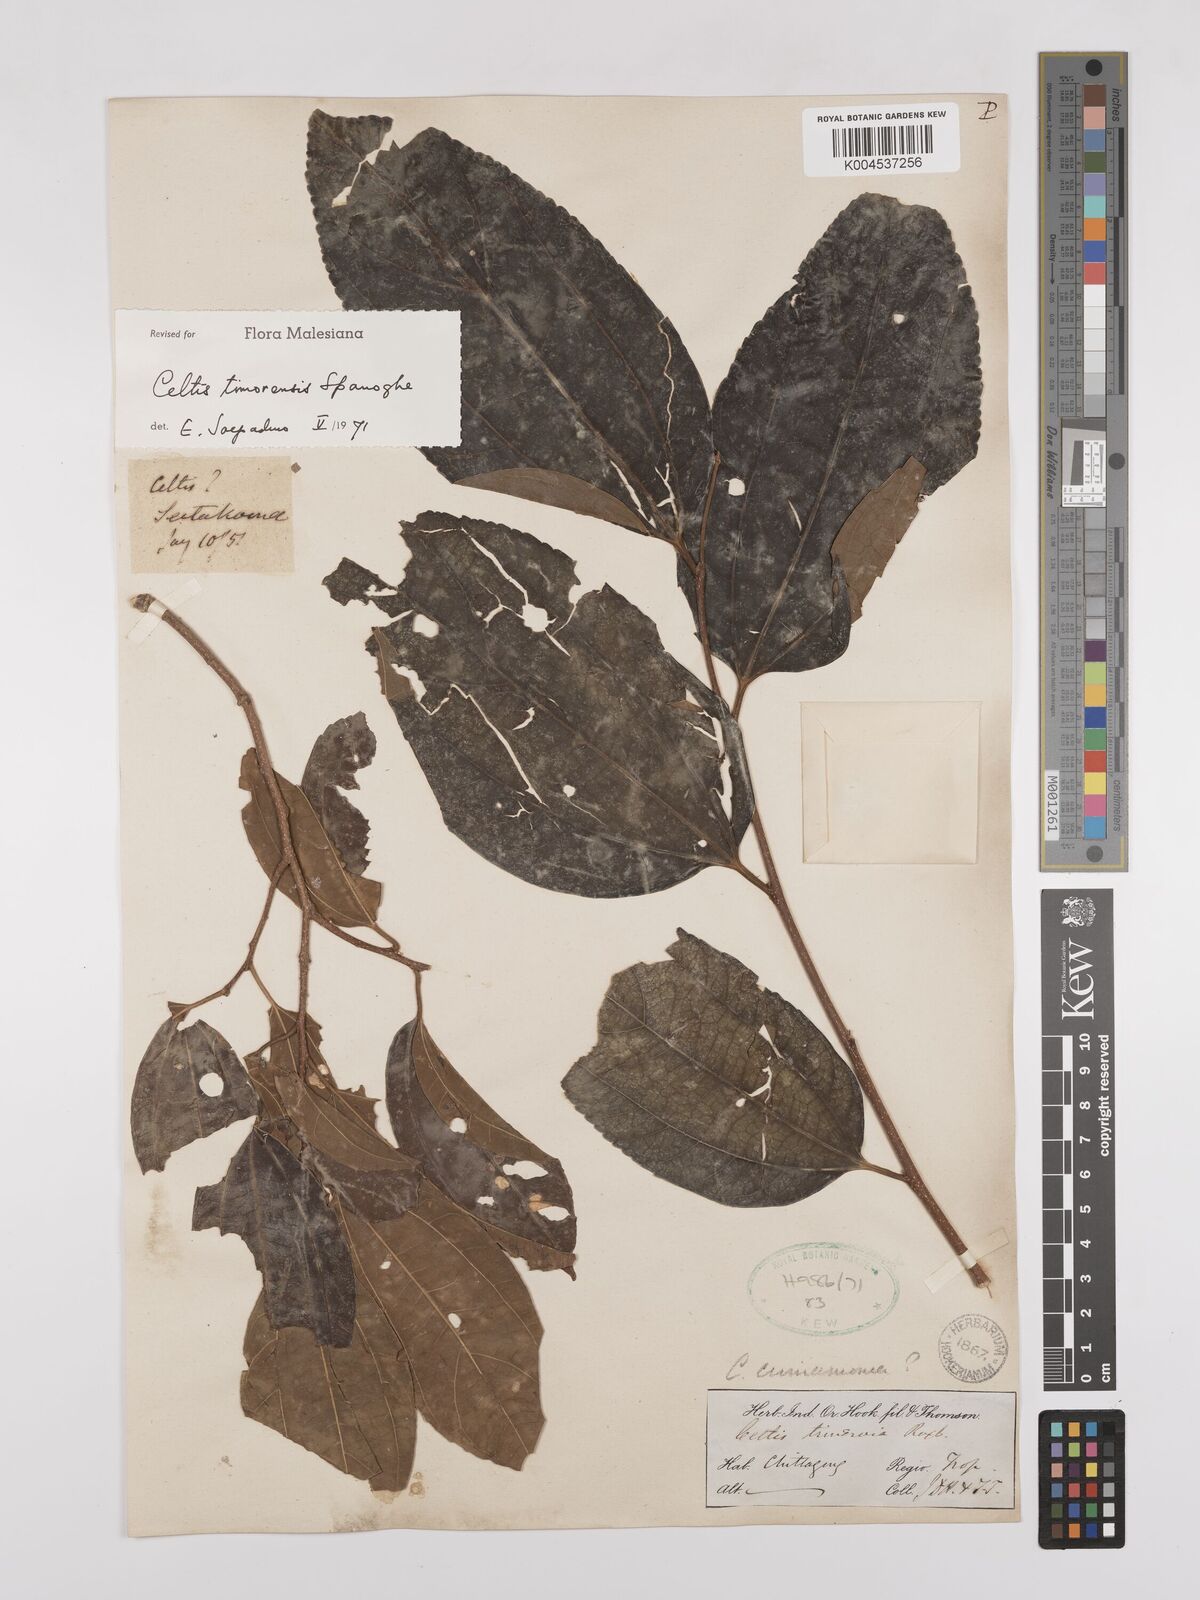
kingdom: Plantae
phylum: Tracheophyta
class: Magnoliopsida
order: Rosales
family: Cannabaceae
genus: Celtis
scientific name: Celtis
